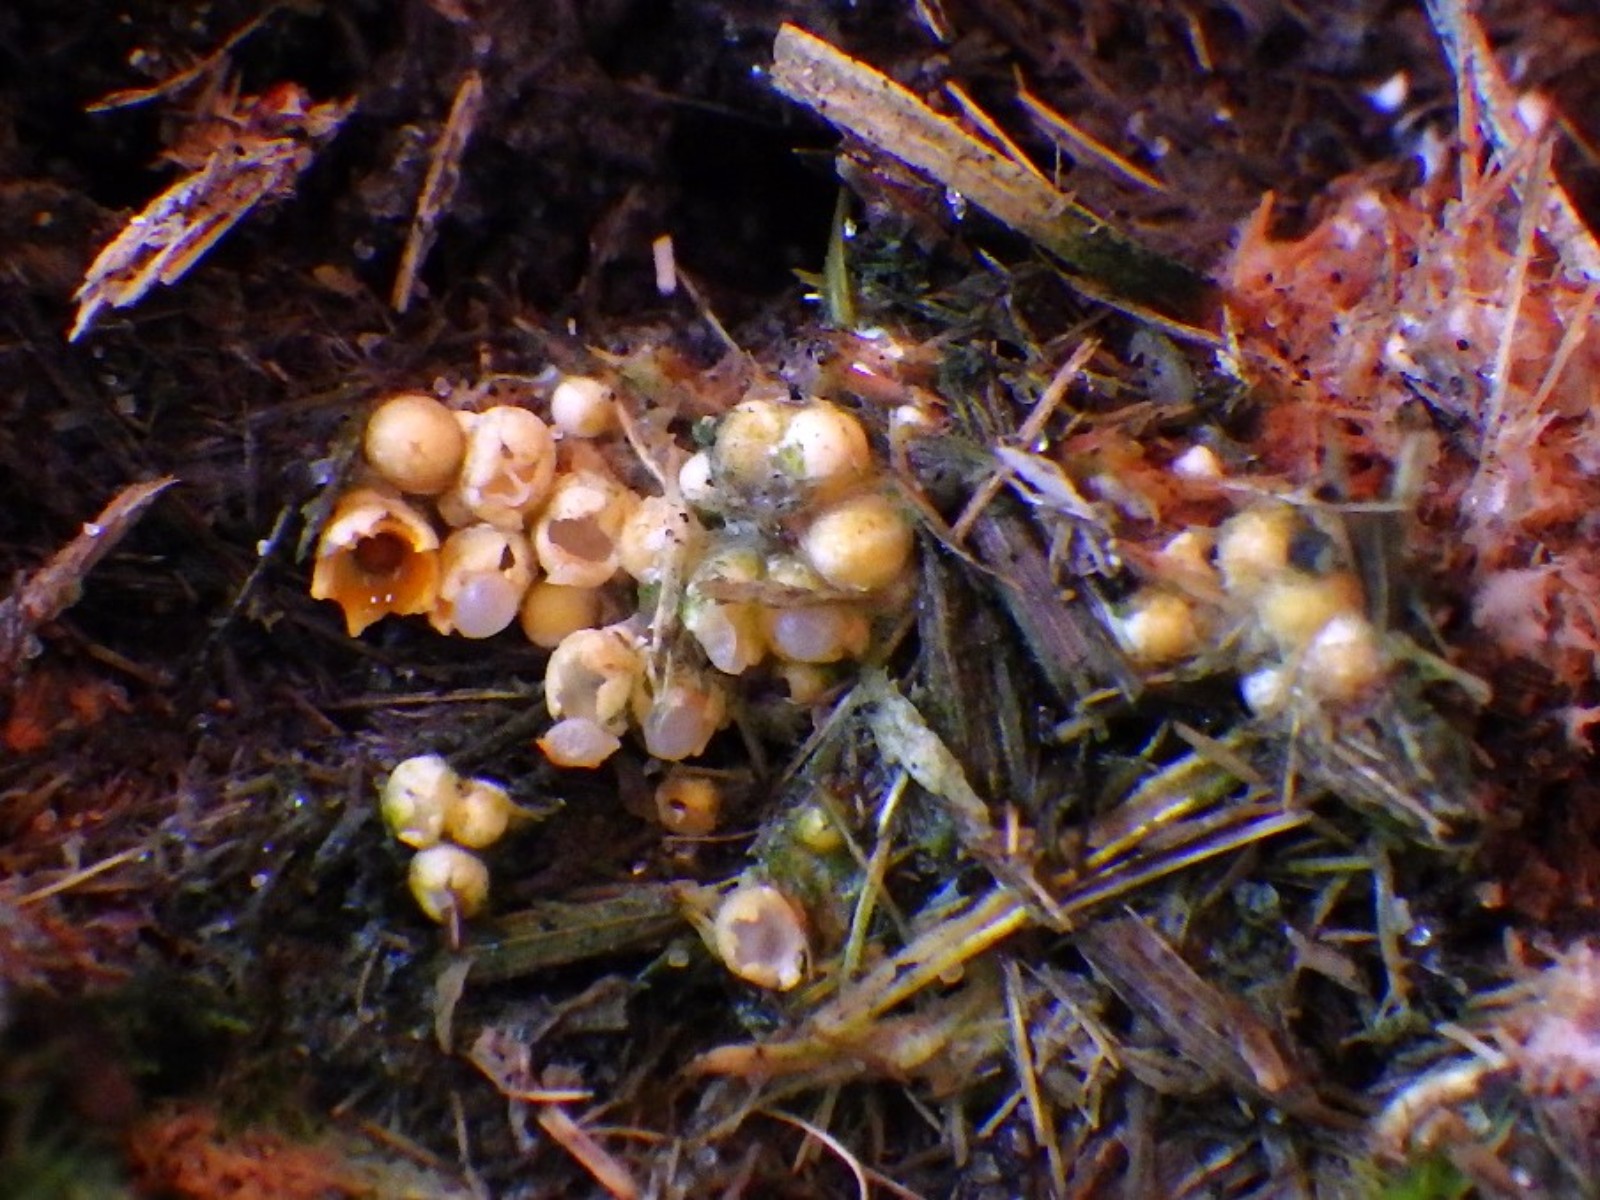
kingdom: Fungi
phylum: Basidiomycota
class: Agaricomycetes
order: Geastrales
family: Geastraceae
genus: Sphaerobolus
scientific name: Sphaerobolus stellatus
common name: bombekaster
